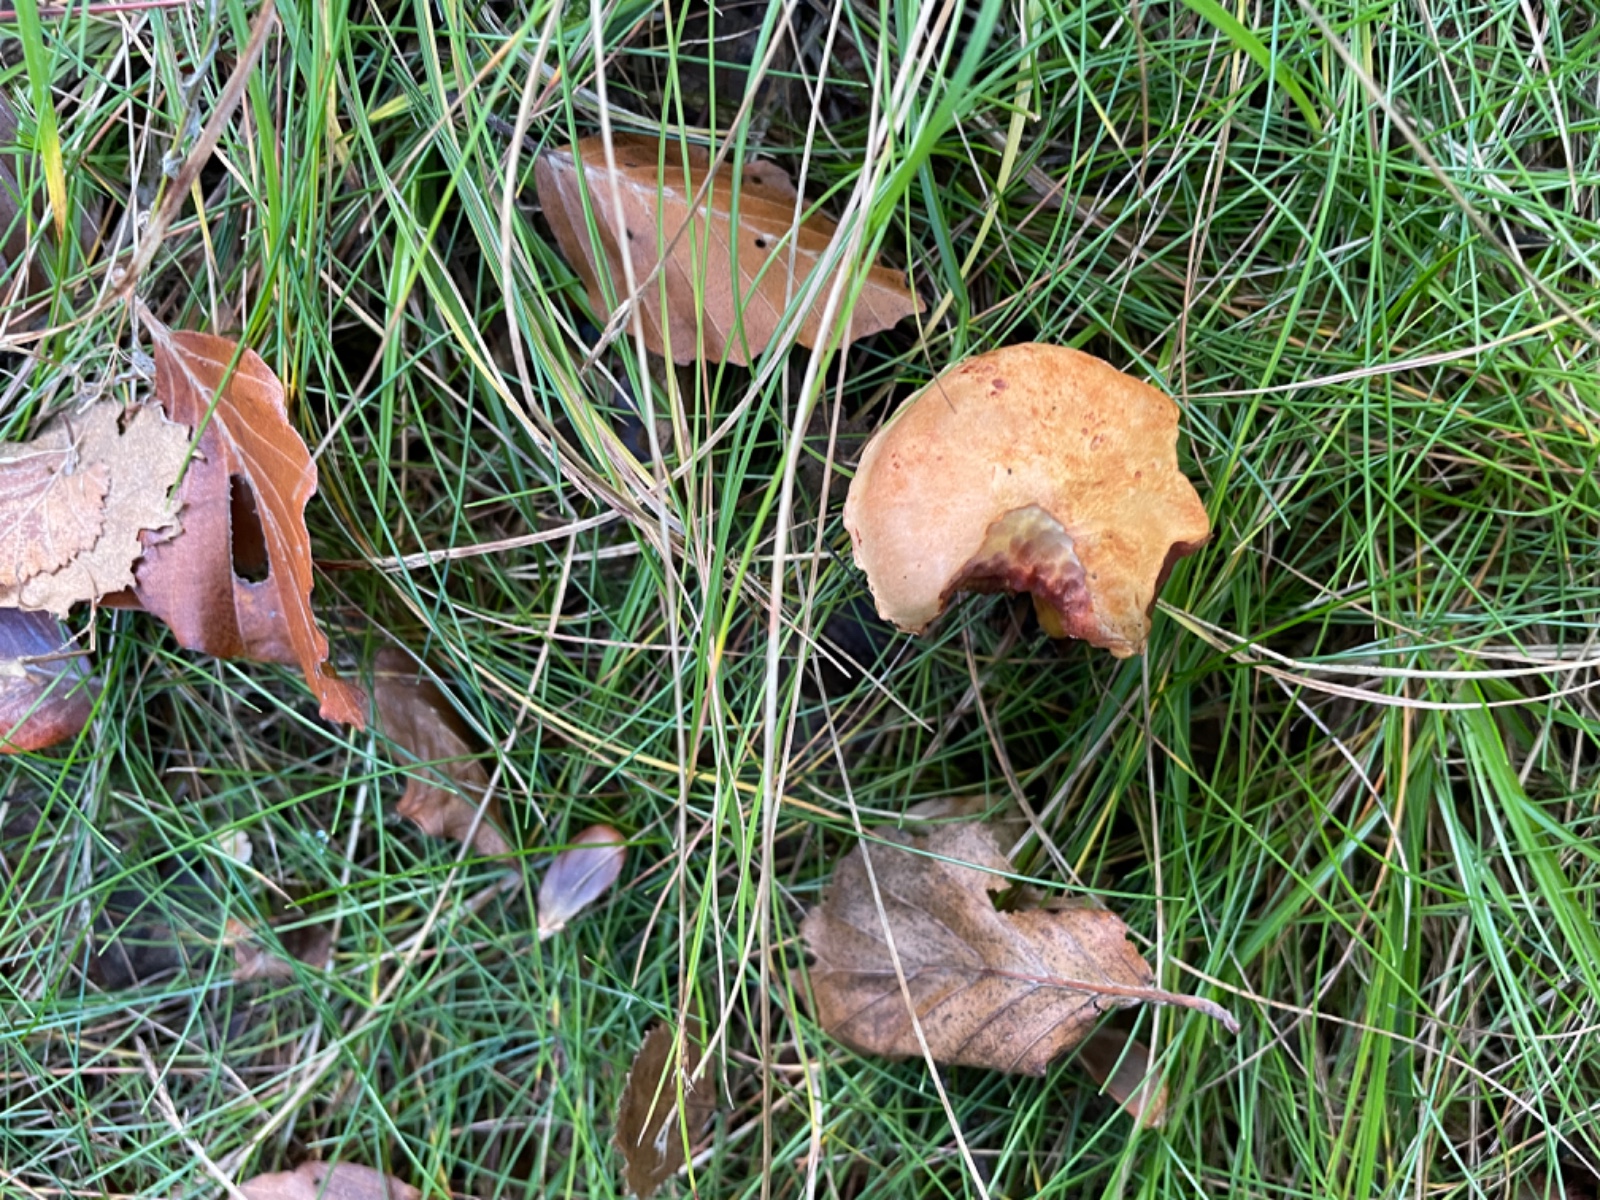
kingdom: Fungi
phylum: Basidiomycota
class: Agaricomycetes
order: Boletales
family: Boletaceae
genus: Chalciporus
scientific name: Chalciporus piperatus
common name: peberrørhat
